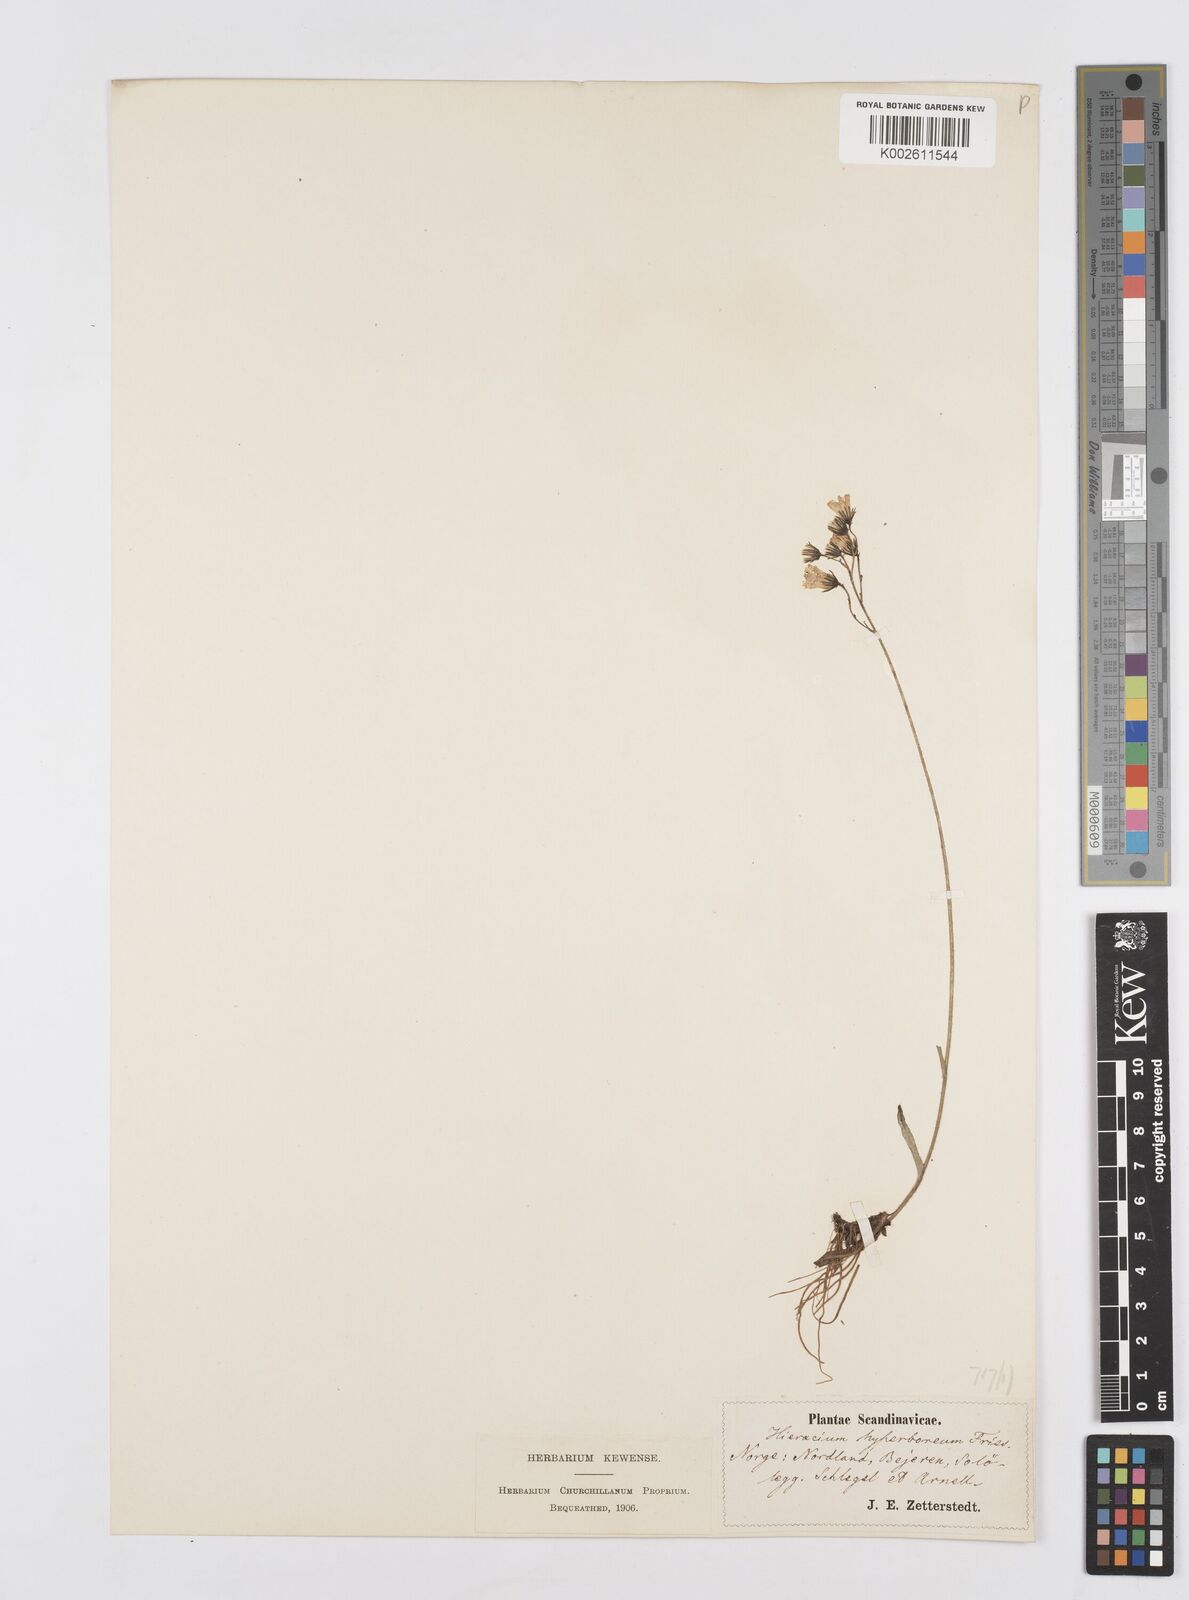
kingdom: Plantae
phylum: Tracheophyta
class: Magnoliopsida
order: Asterales
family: Asteraceae
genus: Pilosella
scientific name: Pilosella hyperborea
